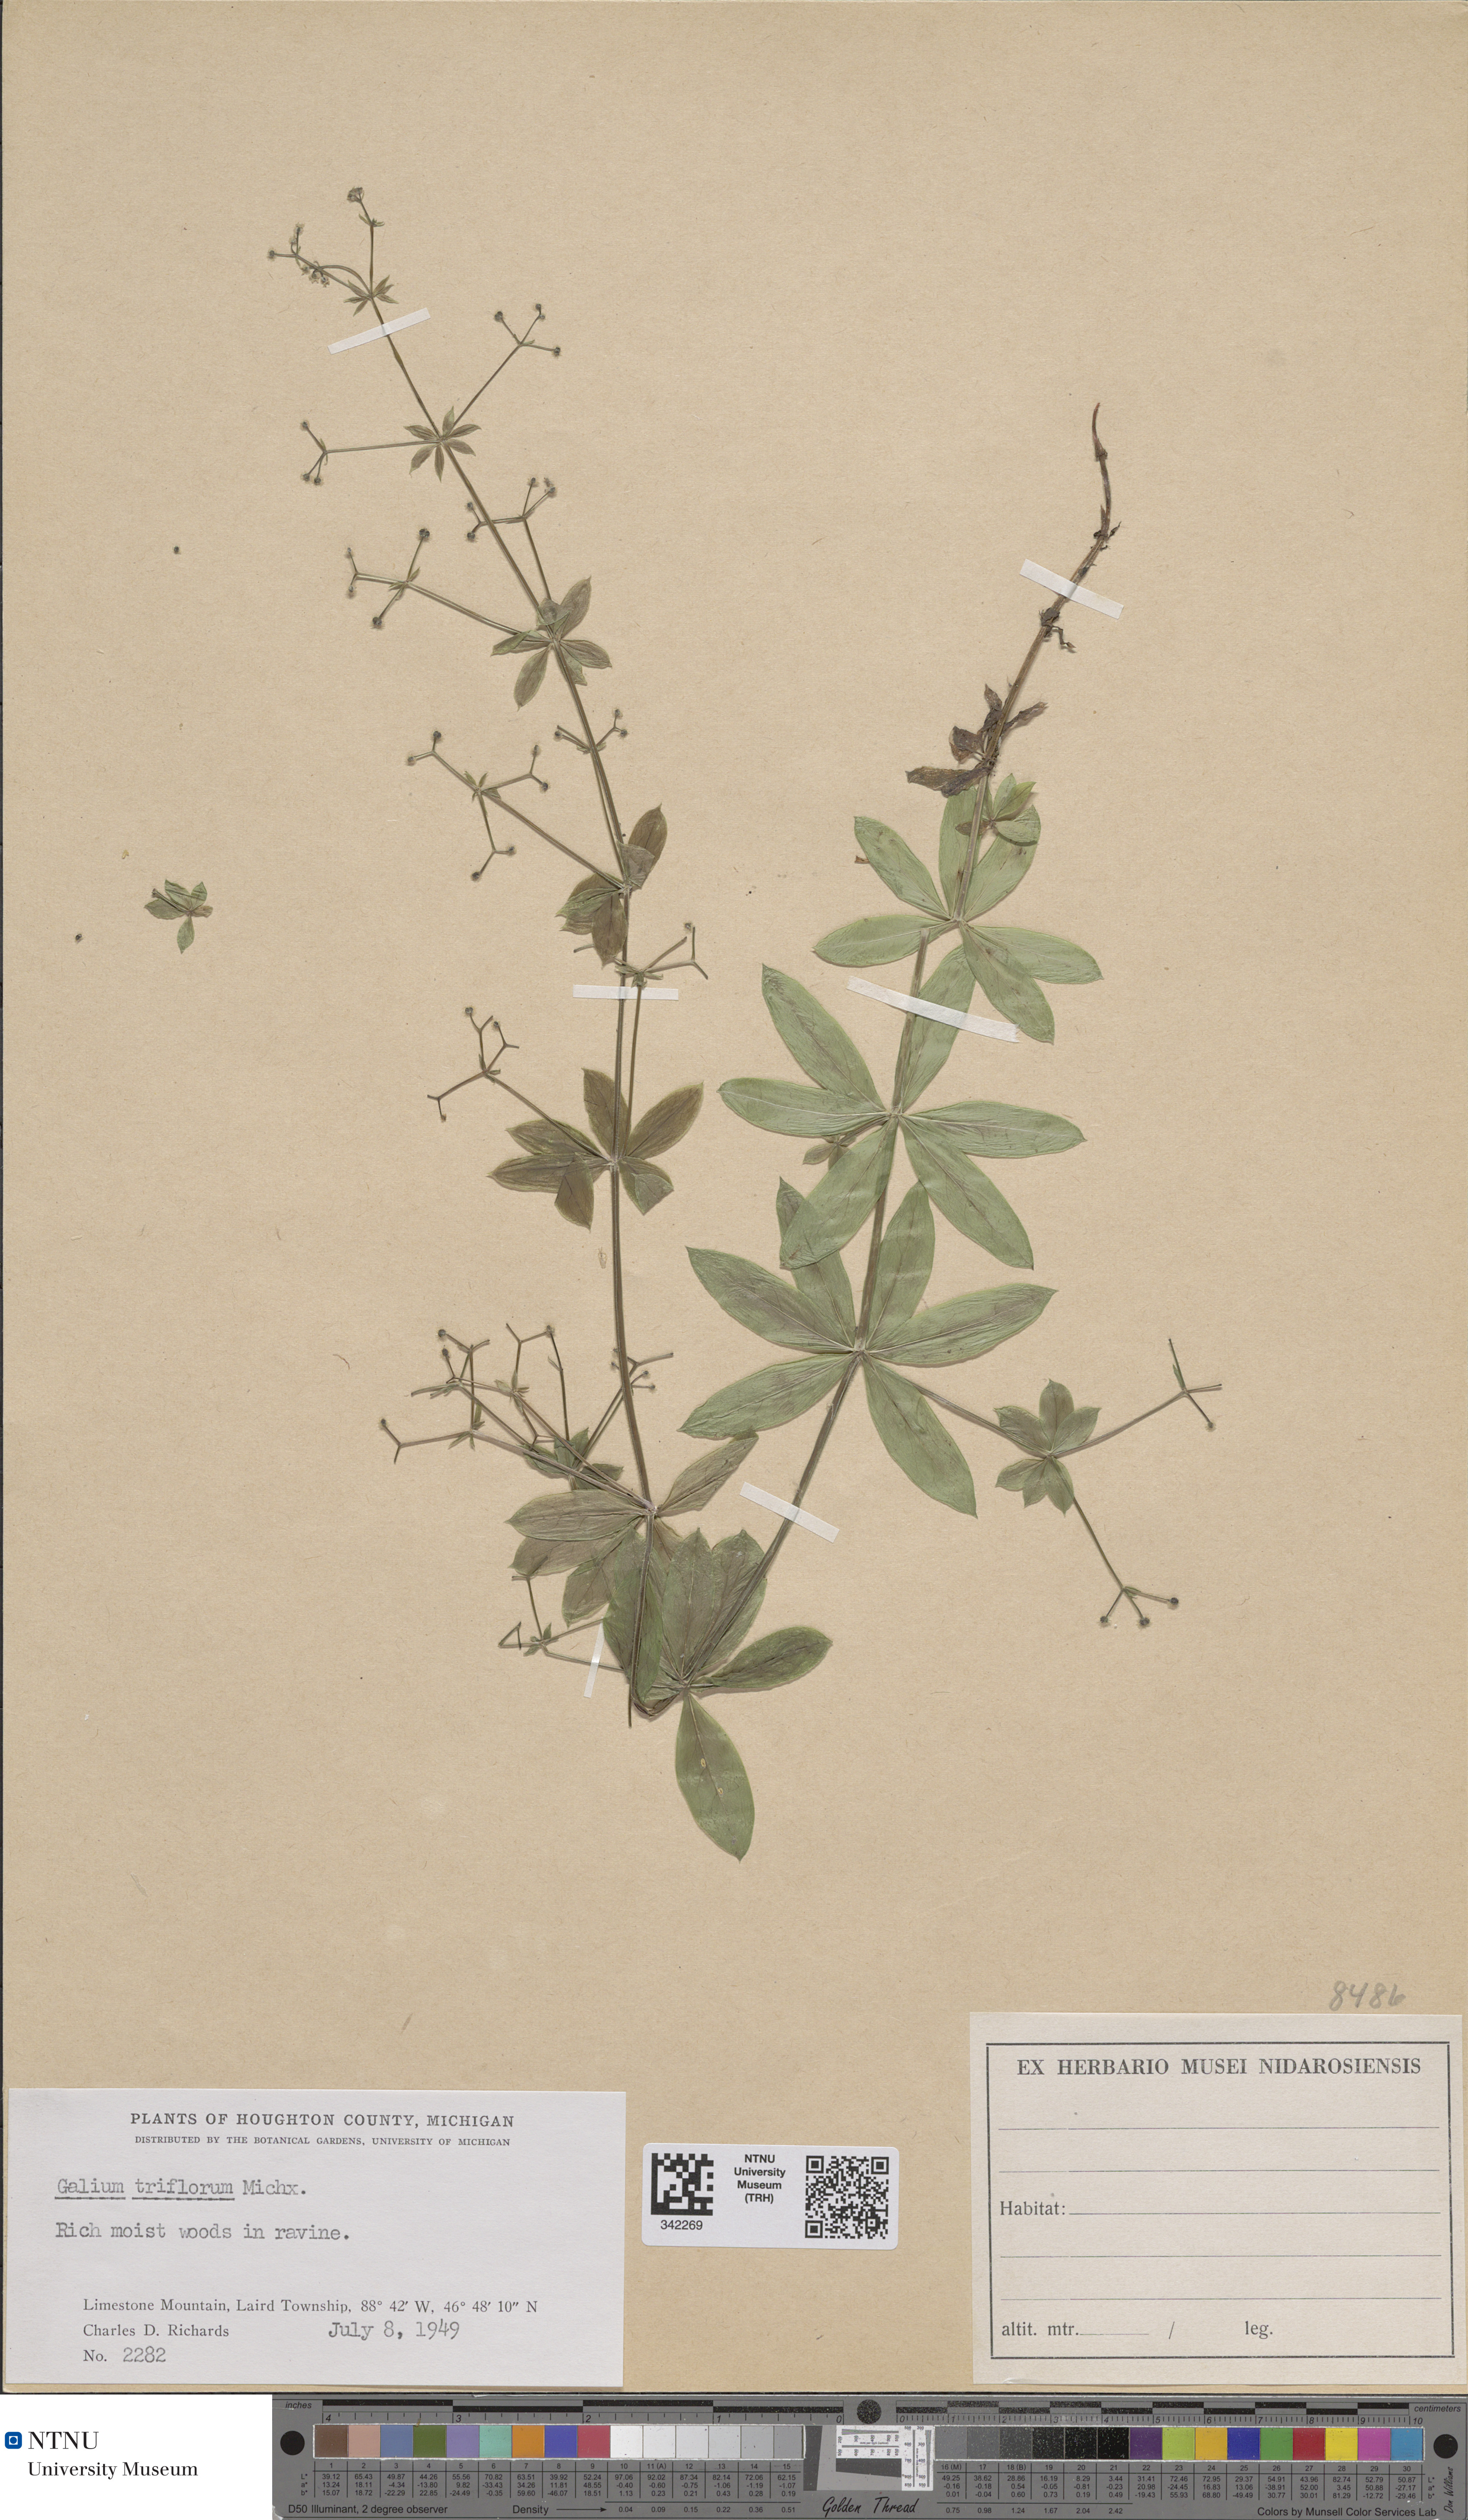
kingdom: Plantae
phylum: Tracheophyta
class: Magnoliopsida
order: Gentianales
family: Rubiaceae
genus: Galium
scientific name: Galium triflorum
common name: Fragrant bedstraw
